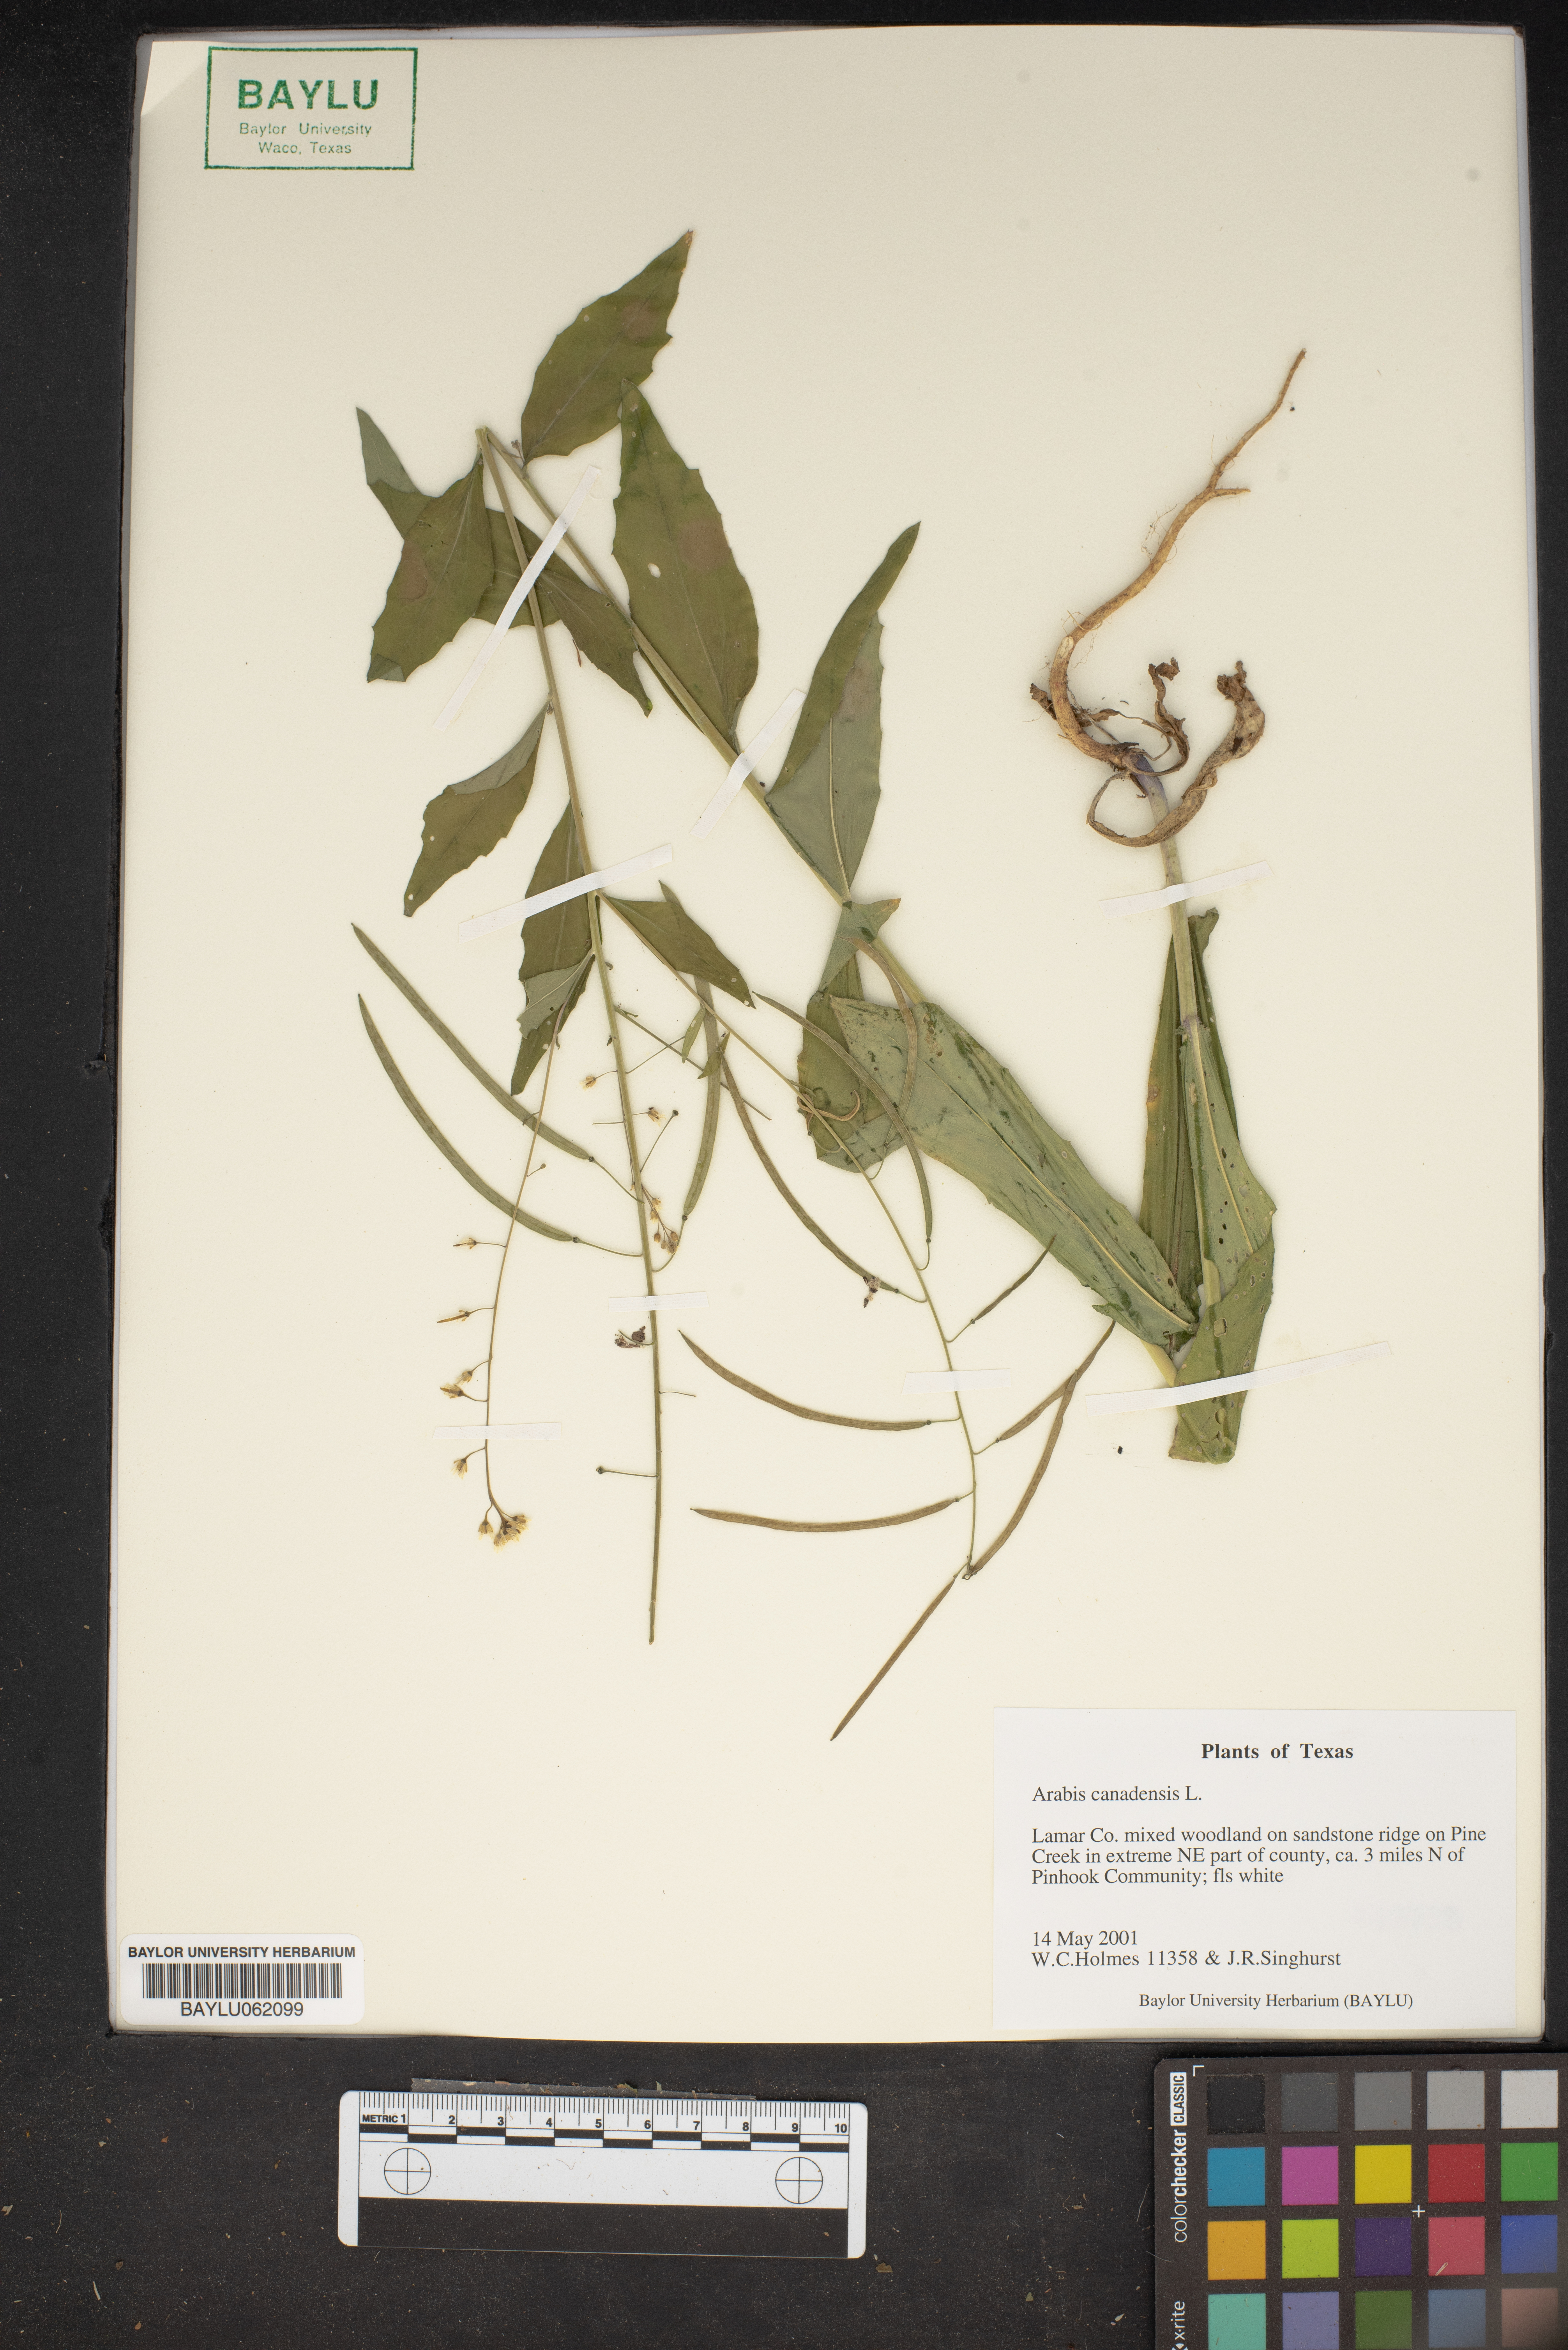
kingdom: Plantae
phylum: Tracheophyta
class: Magnoliopsida
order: Brassicales
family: Brassicaceae
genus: Borodinia
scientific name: Borodinia canadensis
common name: Sicklepod
